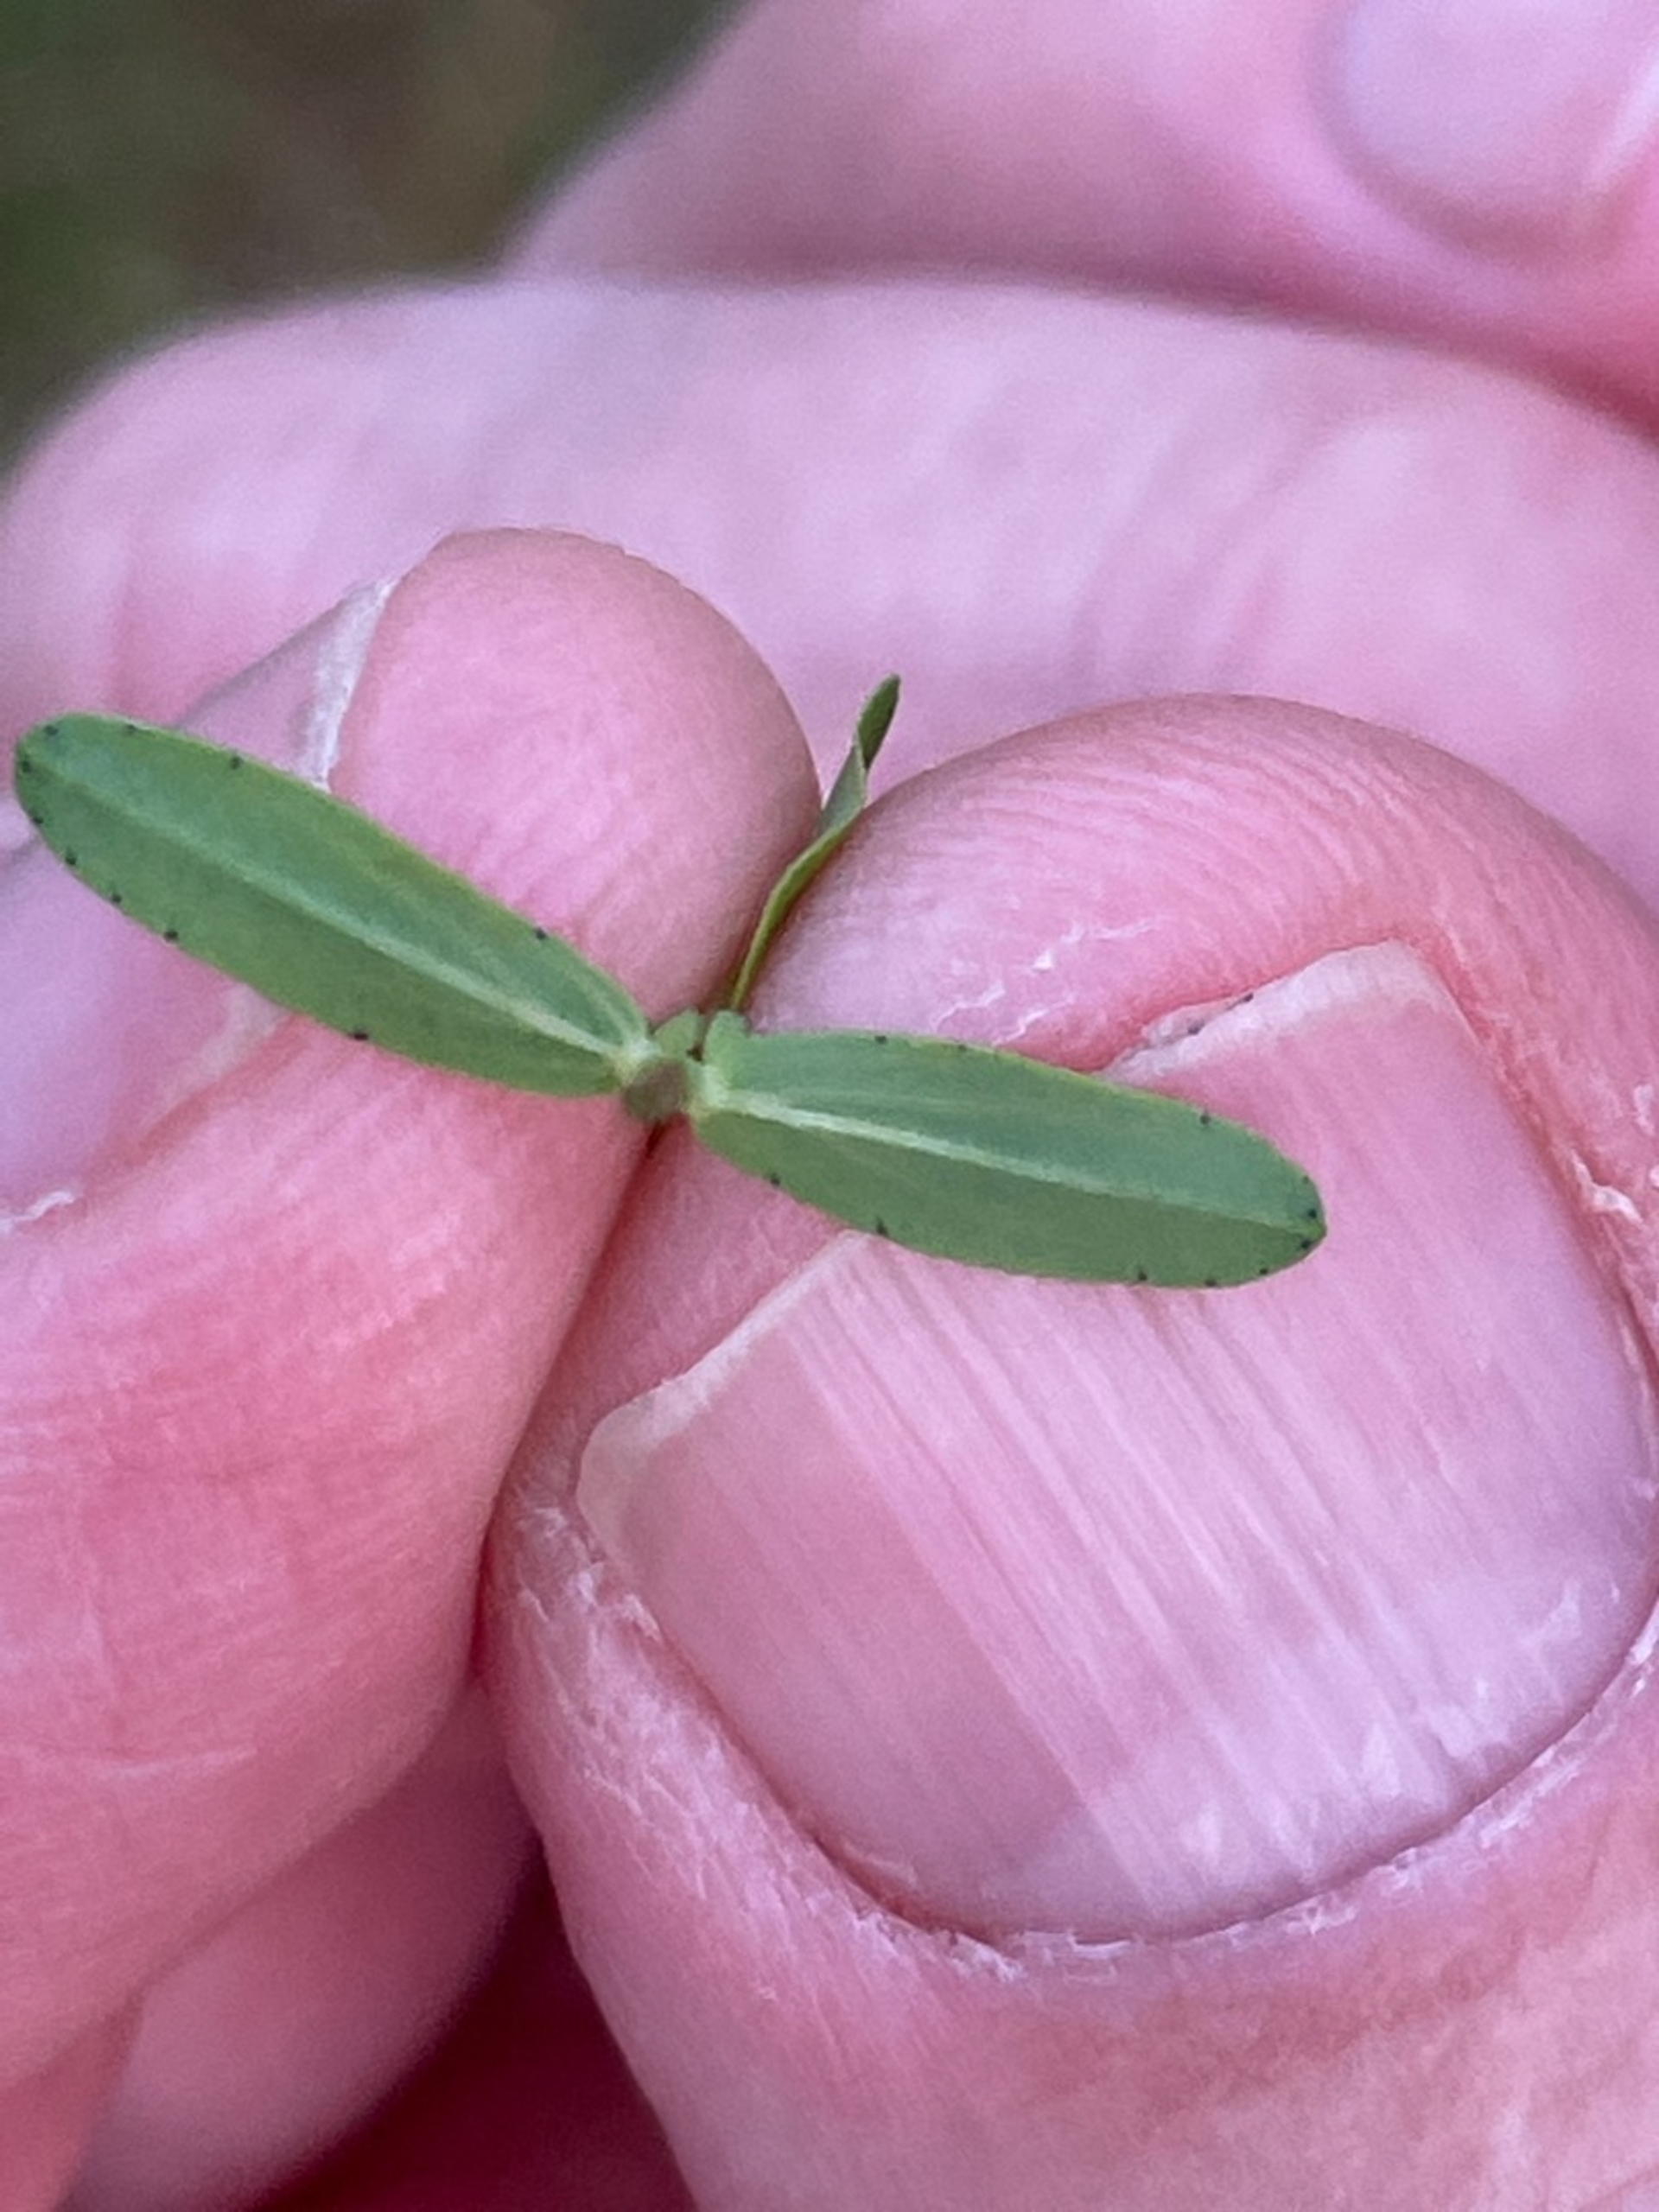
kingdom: Plantae
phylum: Tracheophyta
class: Magnoliopsida
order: Malpighiales
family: Hypericaceae
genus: Hypericum
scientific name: Hypericum perforatum
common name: Prikbladet perikon
